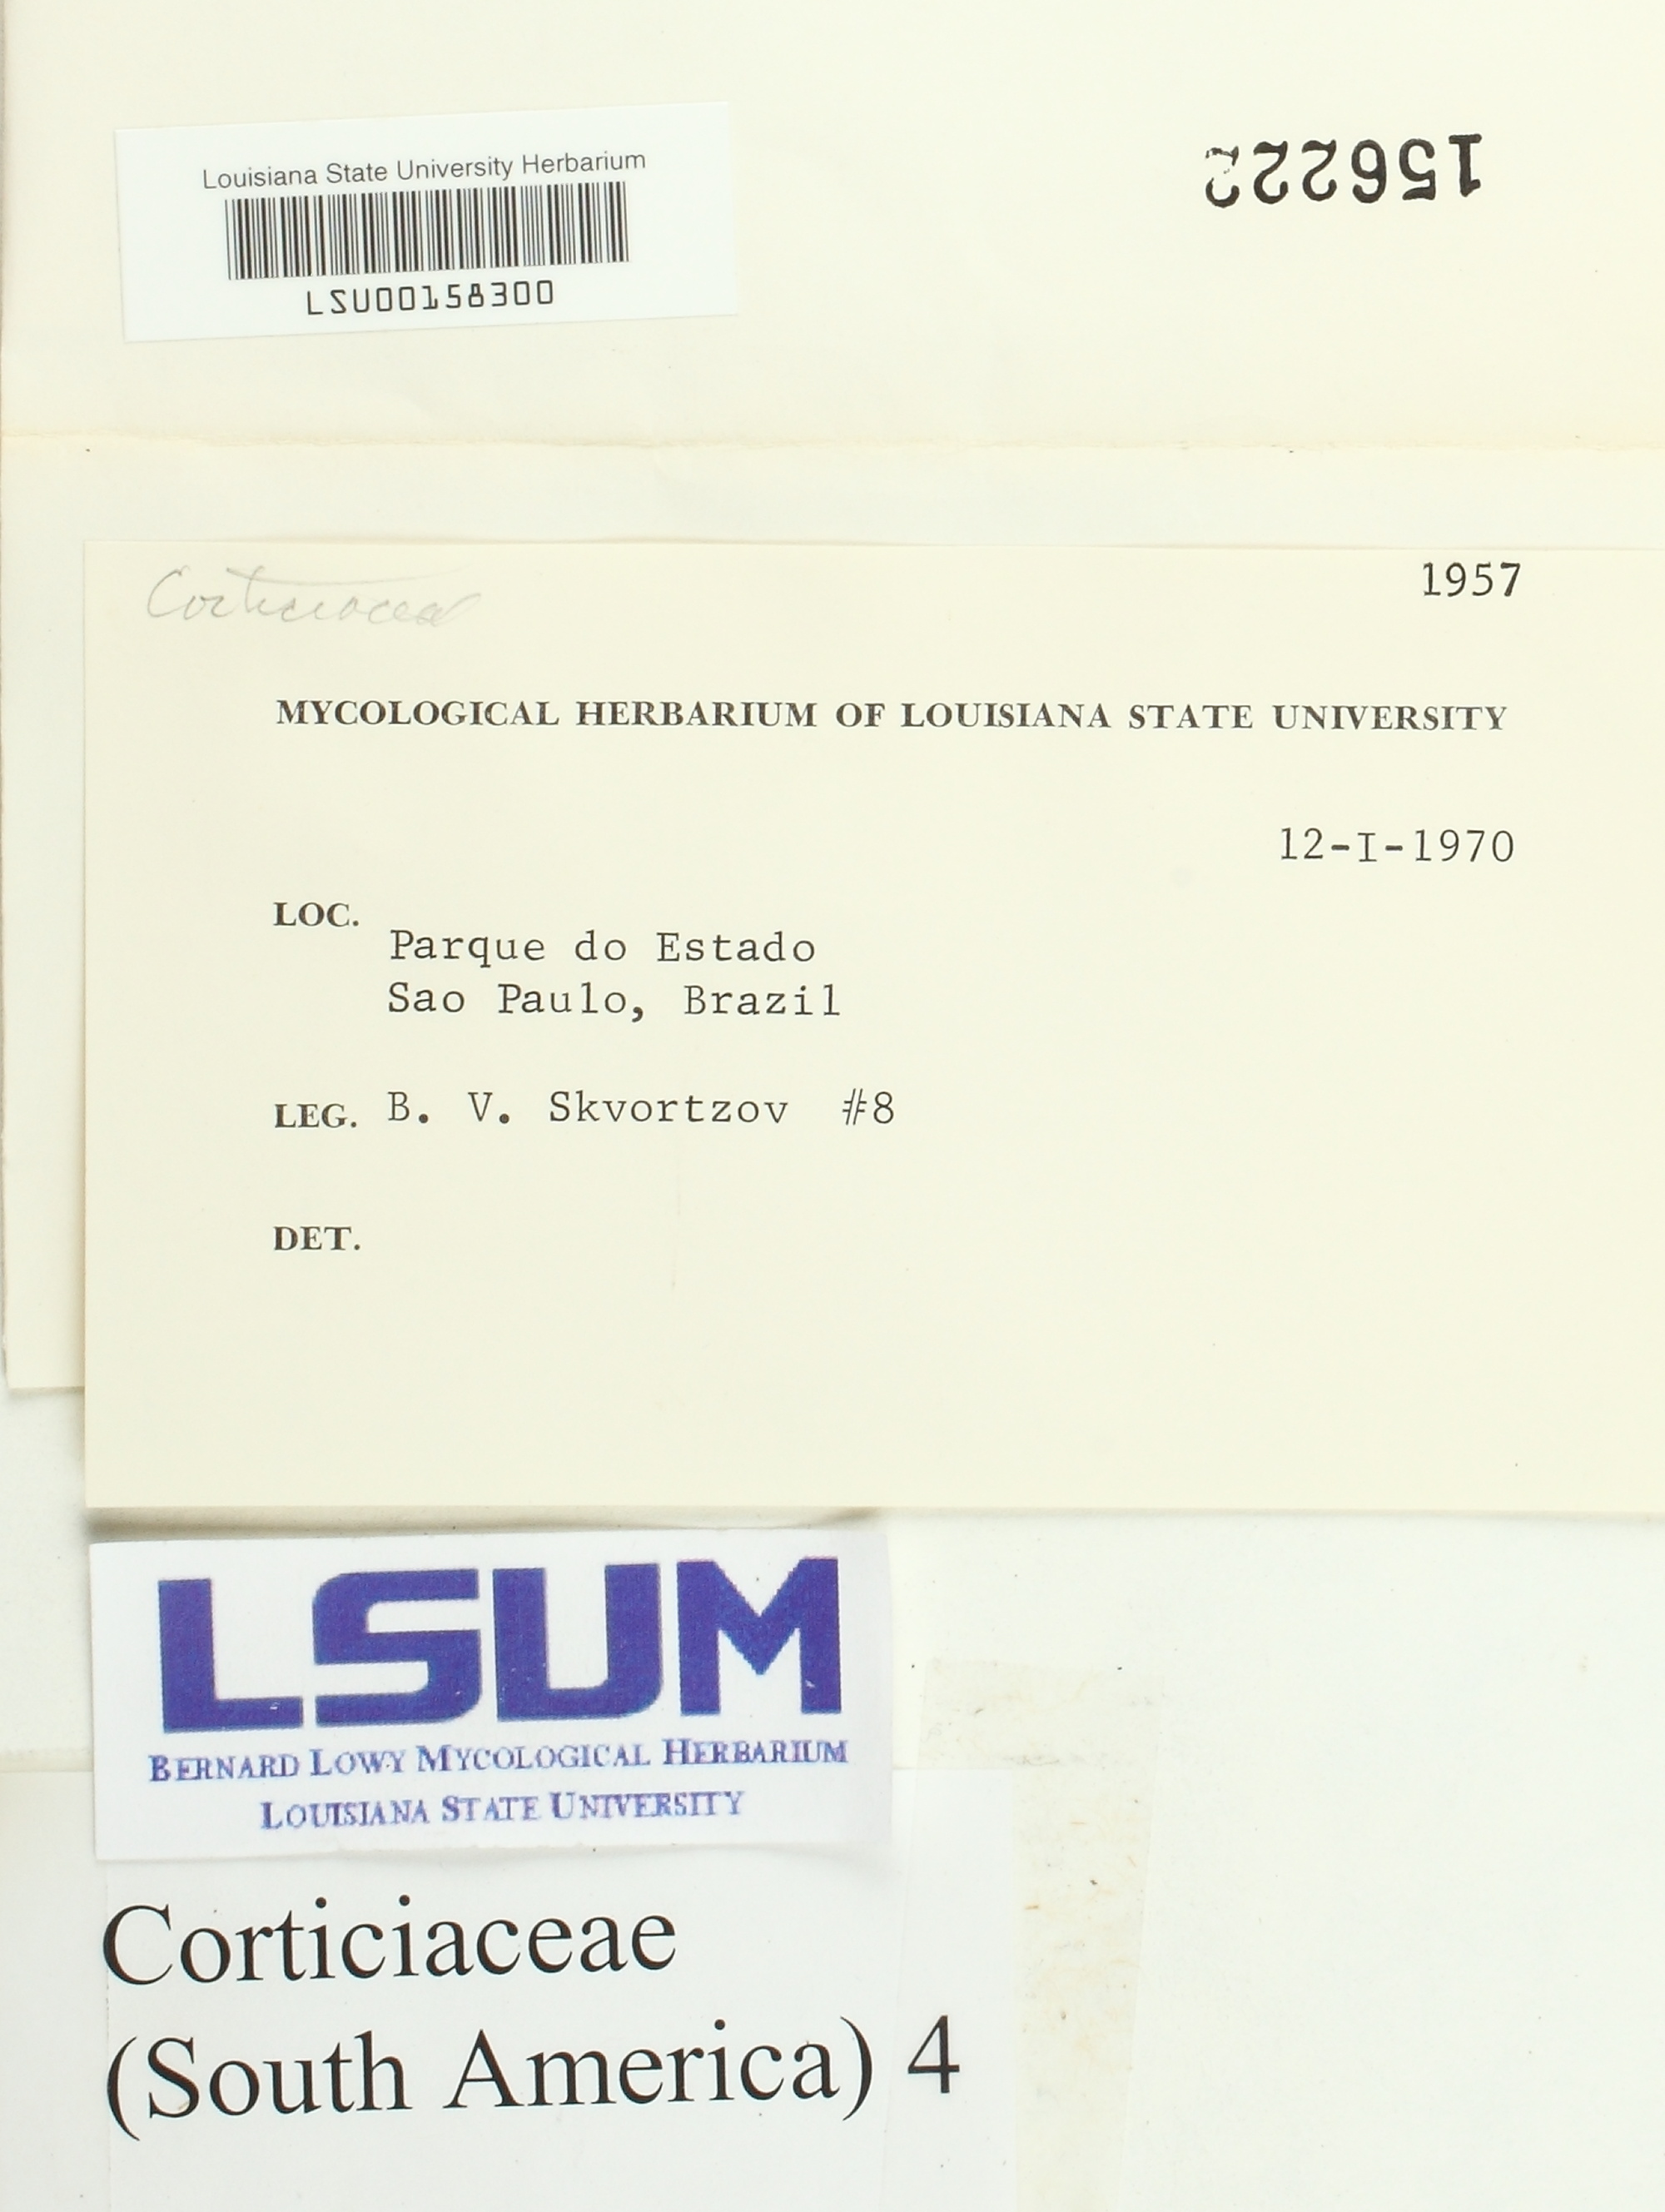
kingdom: Fungi
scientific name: Fungi
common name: Fungi
